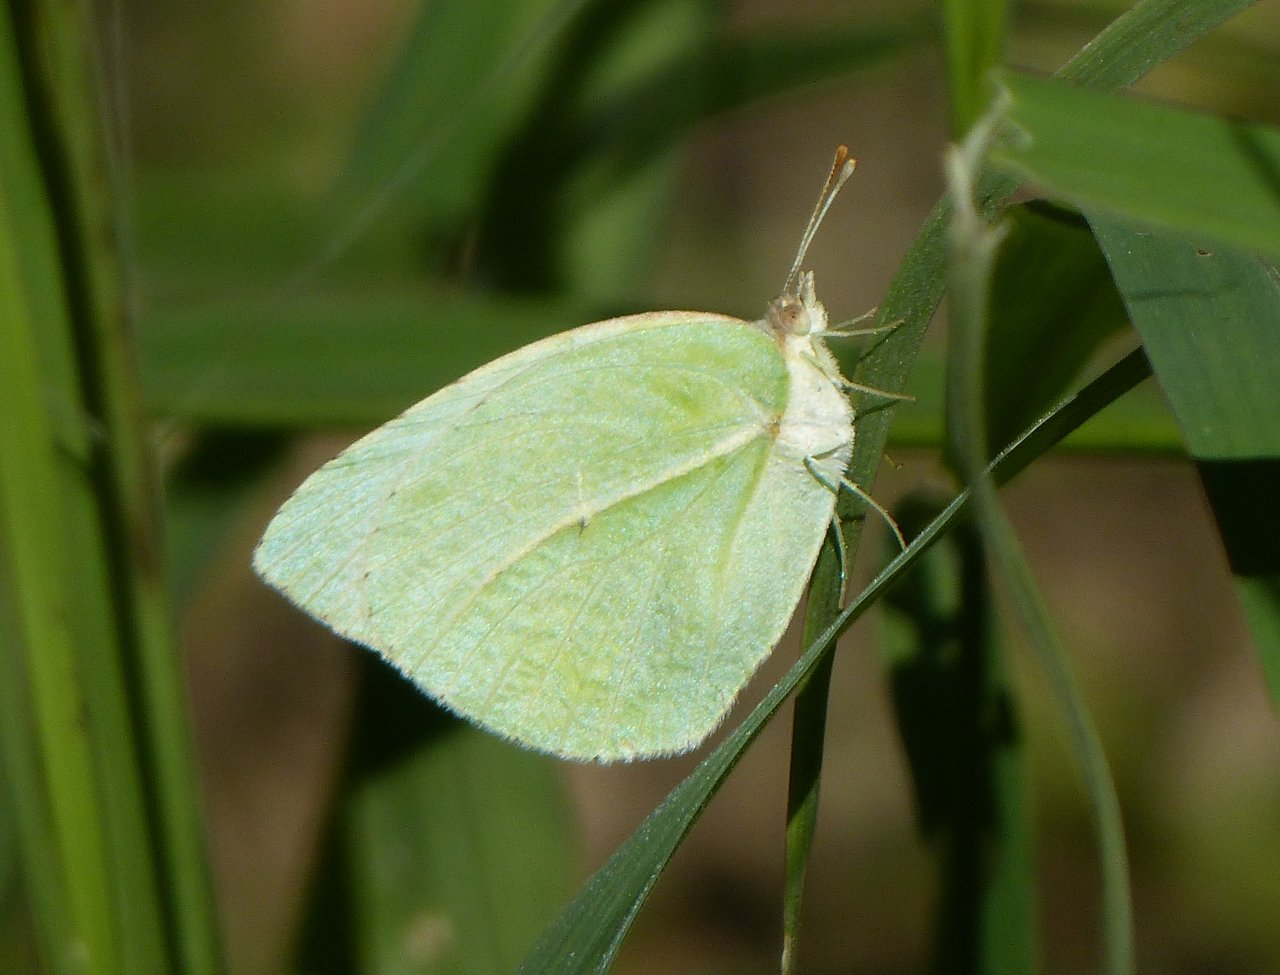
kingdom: Animalia
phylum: Arthropoda
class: Insecta
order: Lepidoptera
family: Pieridae
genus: Kricogonia
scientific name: Kricogonia lyside
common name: Lyside Sulphur
